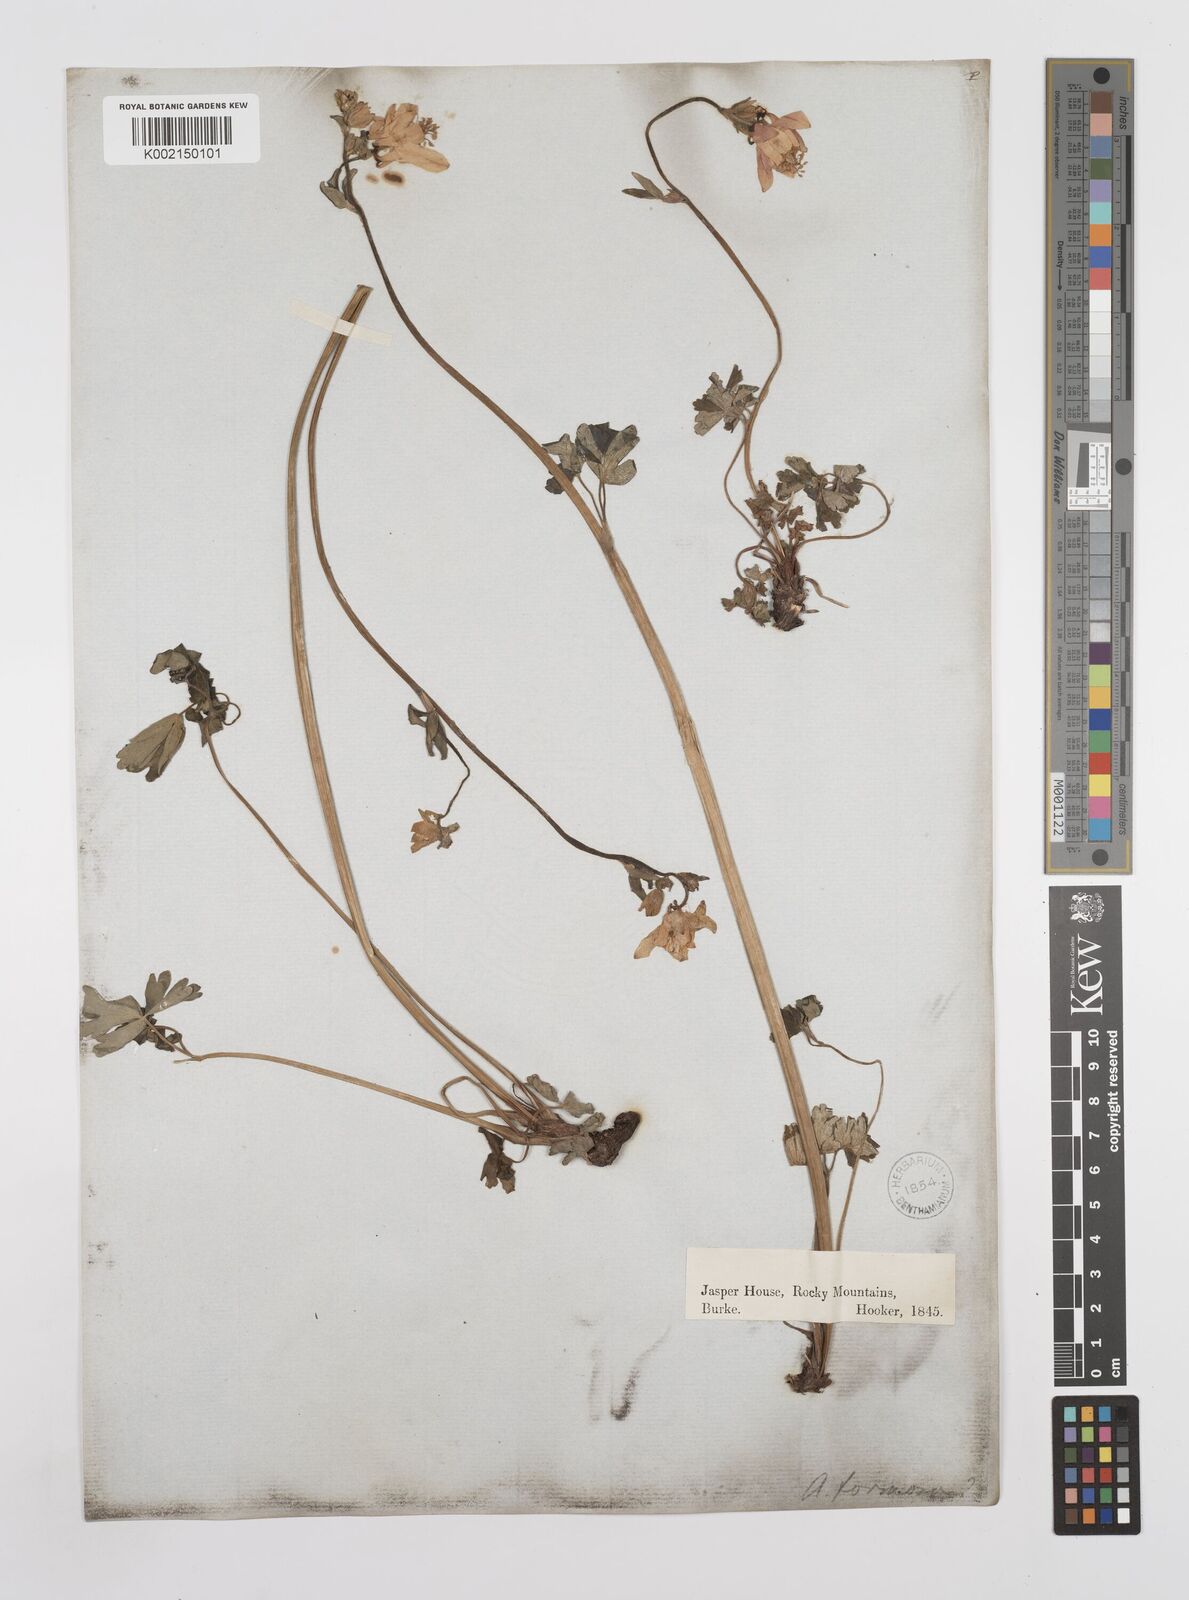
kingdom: Plantae
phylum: Tracheophyta
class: Magnoliopsida
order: Ranunculales
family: Ranunculaceae
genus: Aquilegia
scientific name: Aquilegia
